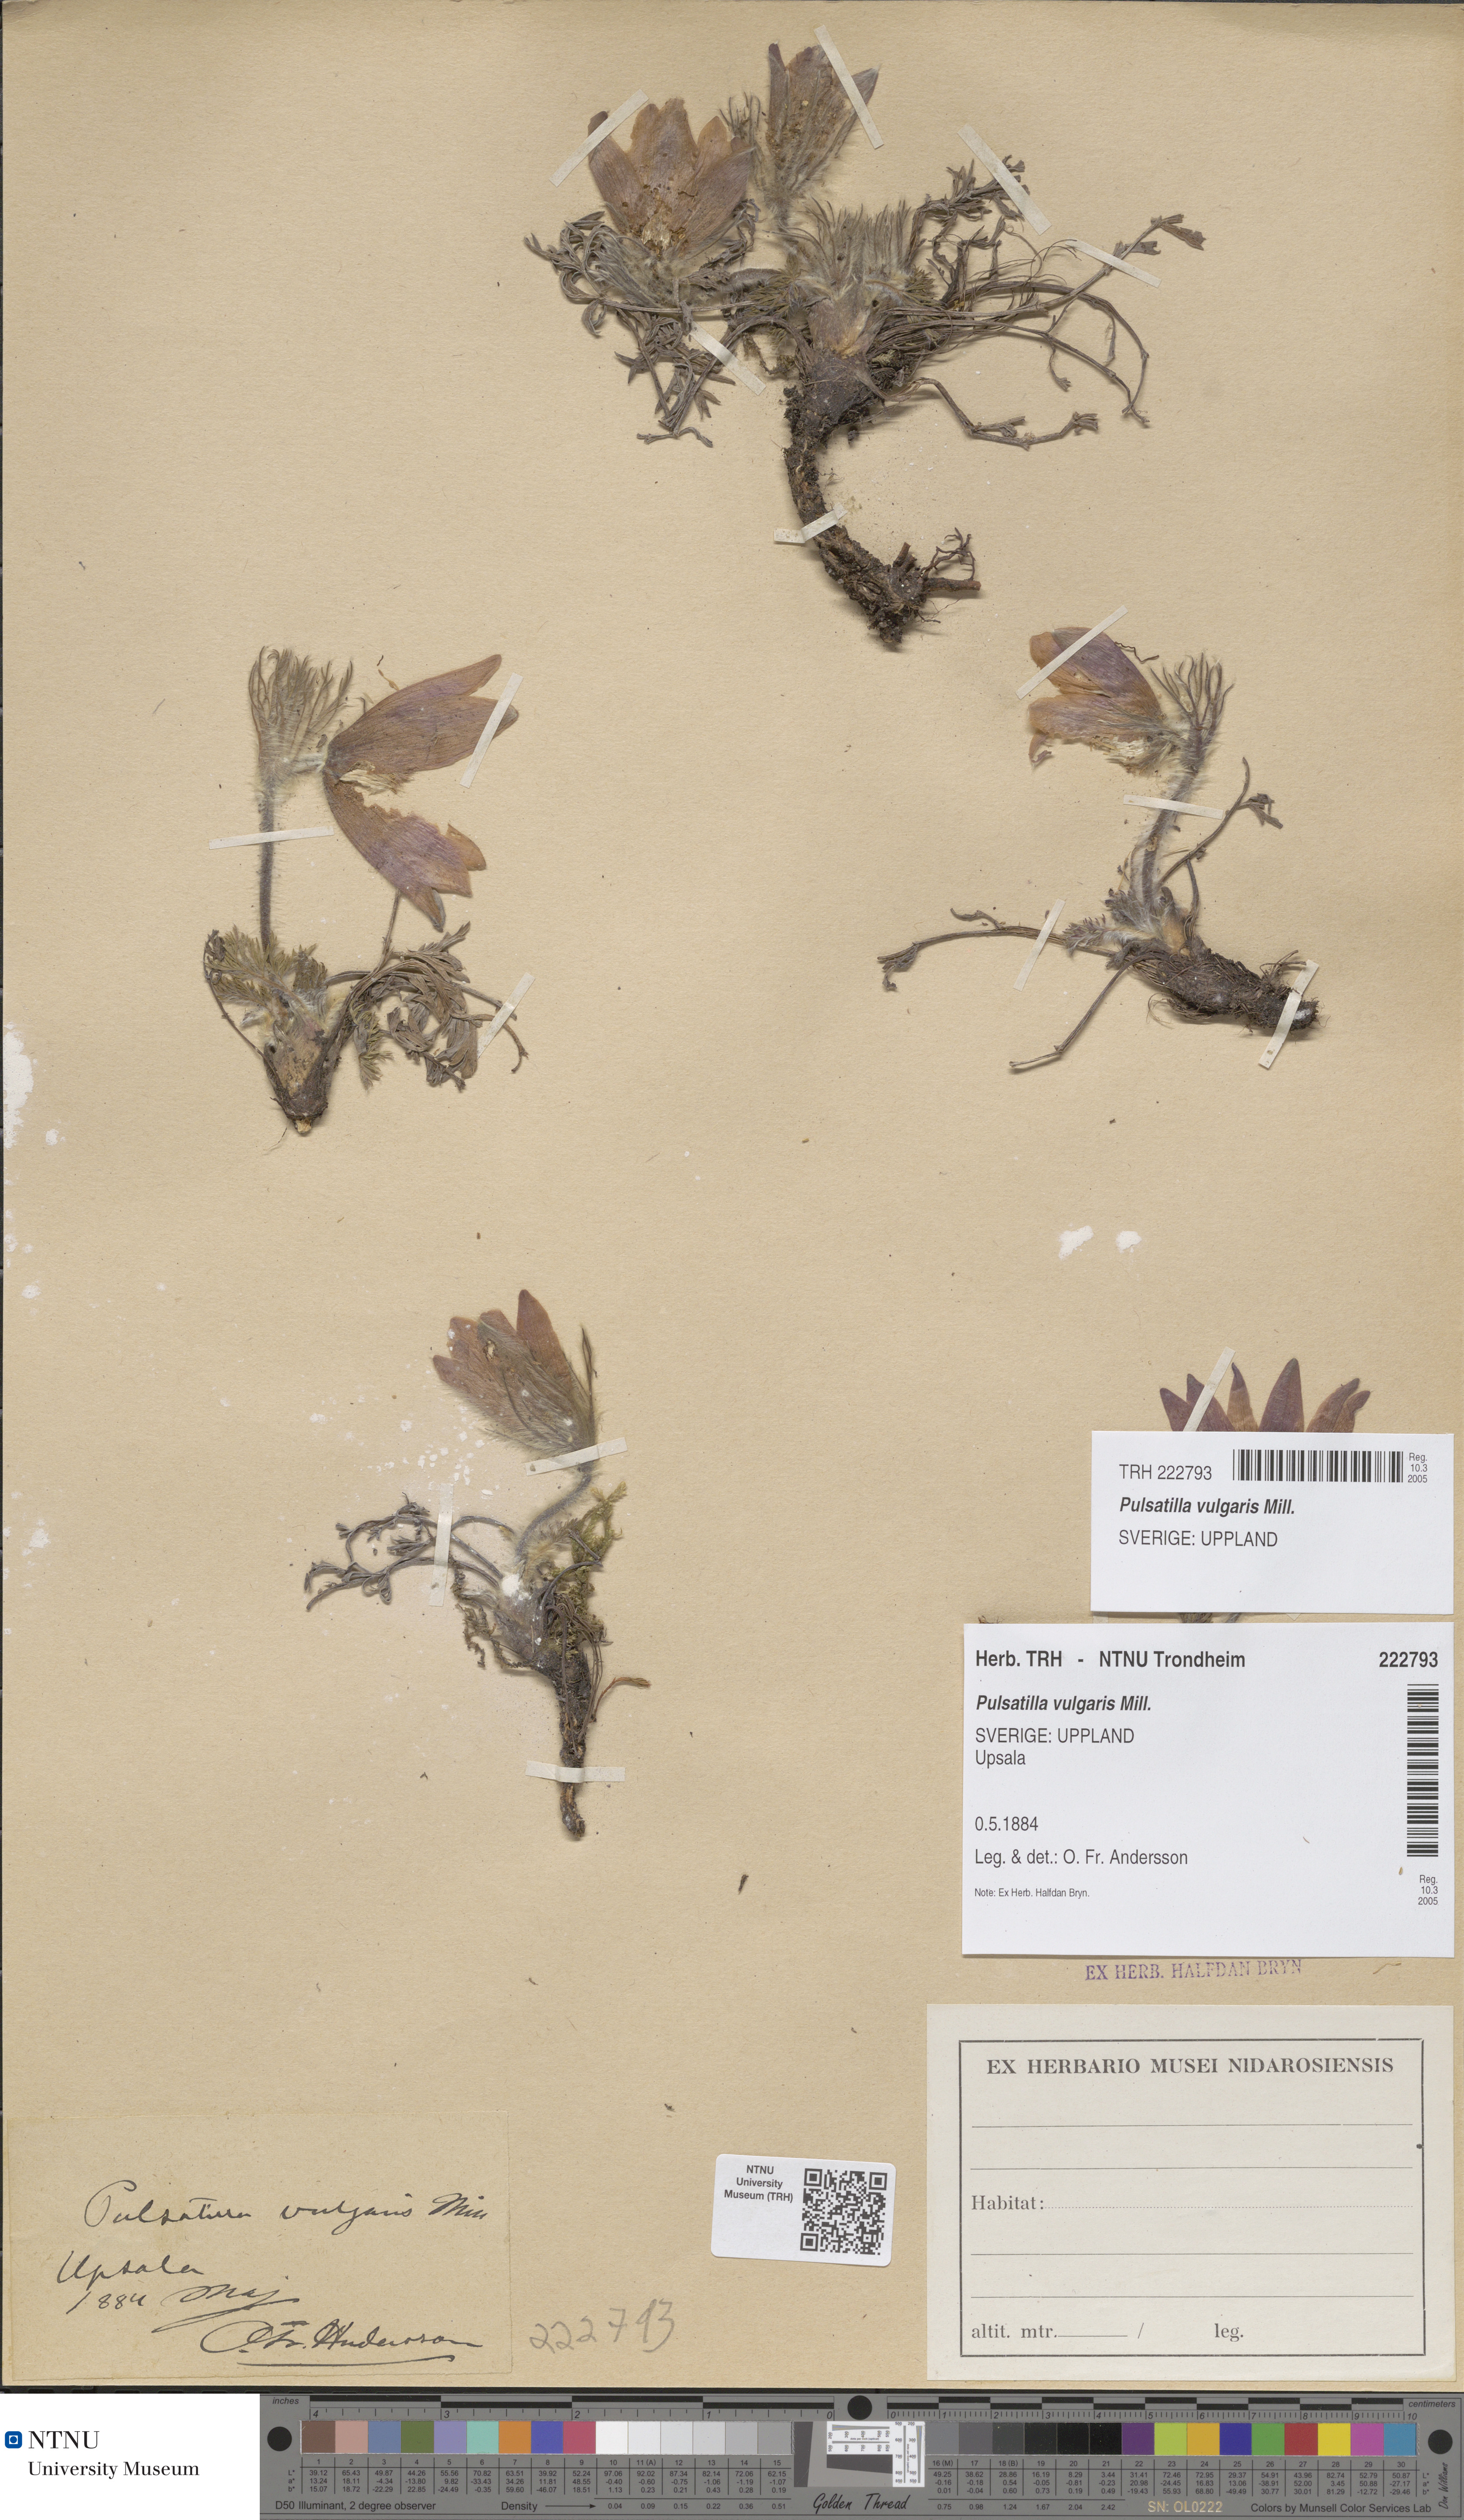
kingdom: Plantae
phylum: Tracheophyta
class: Magnoliopsida
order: Ranunculales
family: Ranunculaceae
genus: Pulsatilla
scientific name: Pulsatilla vulgaris
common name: Pasqueflower
